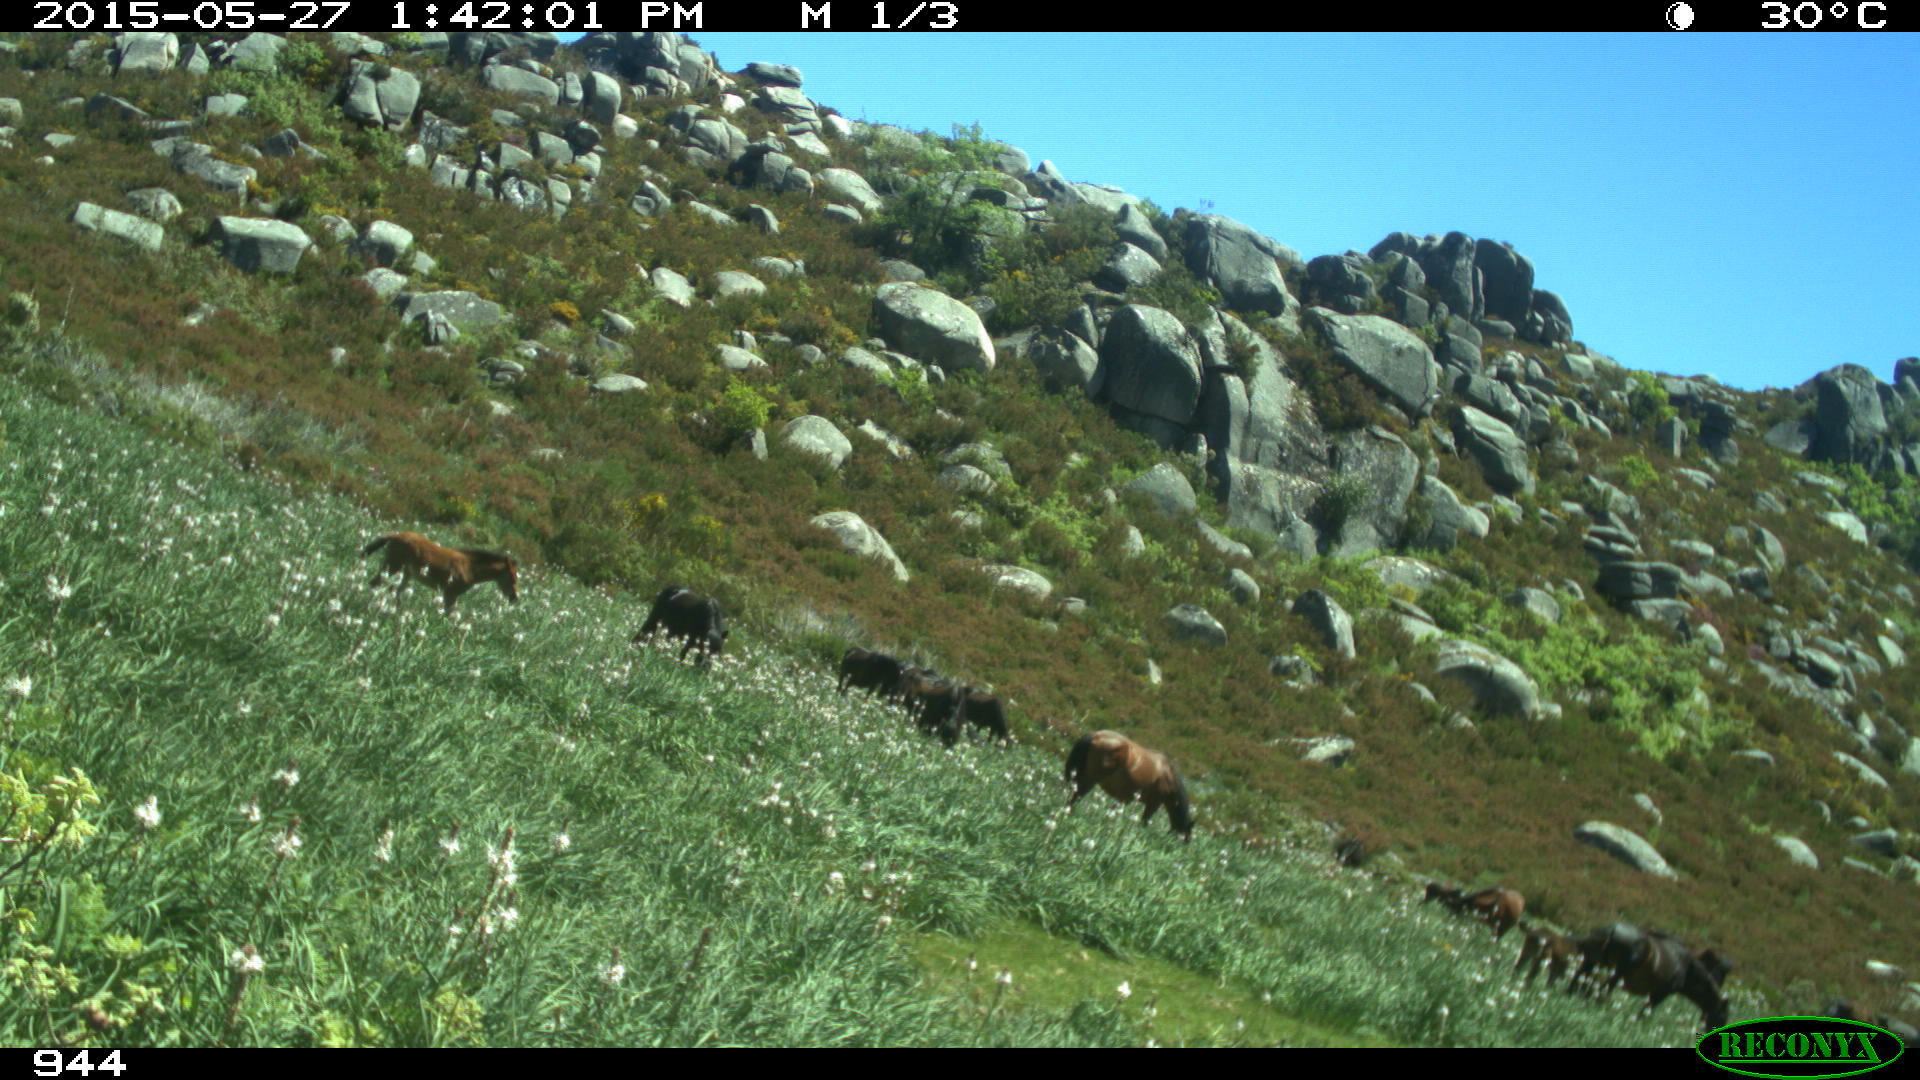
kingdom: Animalia
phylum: Chordata
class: Mammalia
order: Perissodactyla
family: Equidae
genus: Equus
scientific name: Equus caballus
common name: Horse
